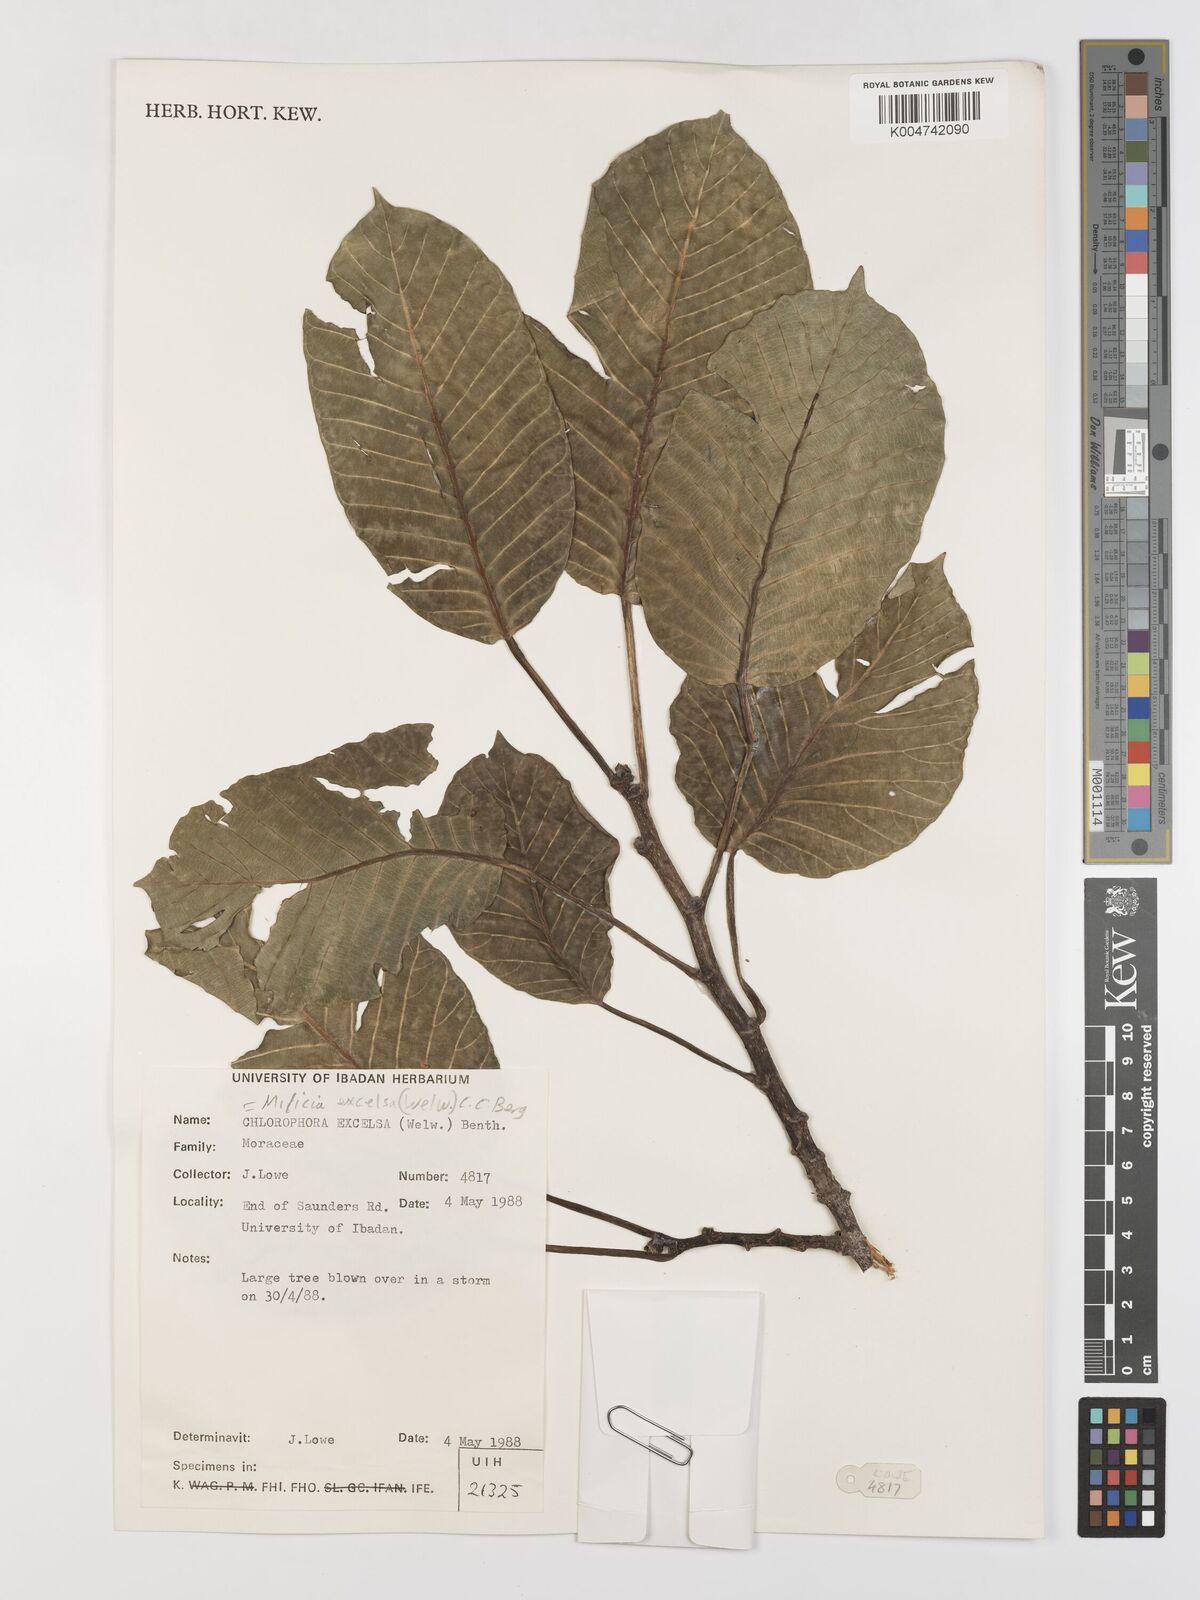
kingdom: Plantae
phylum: Tracheophyta
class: Magnoliopsida
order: Rosales
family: Moraceae
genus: Milicia
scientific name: Milicia excelsa
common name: African teak
